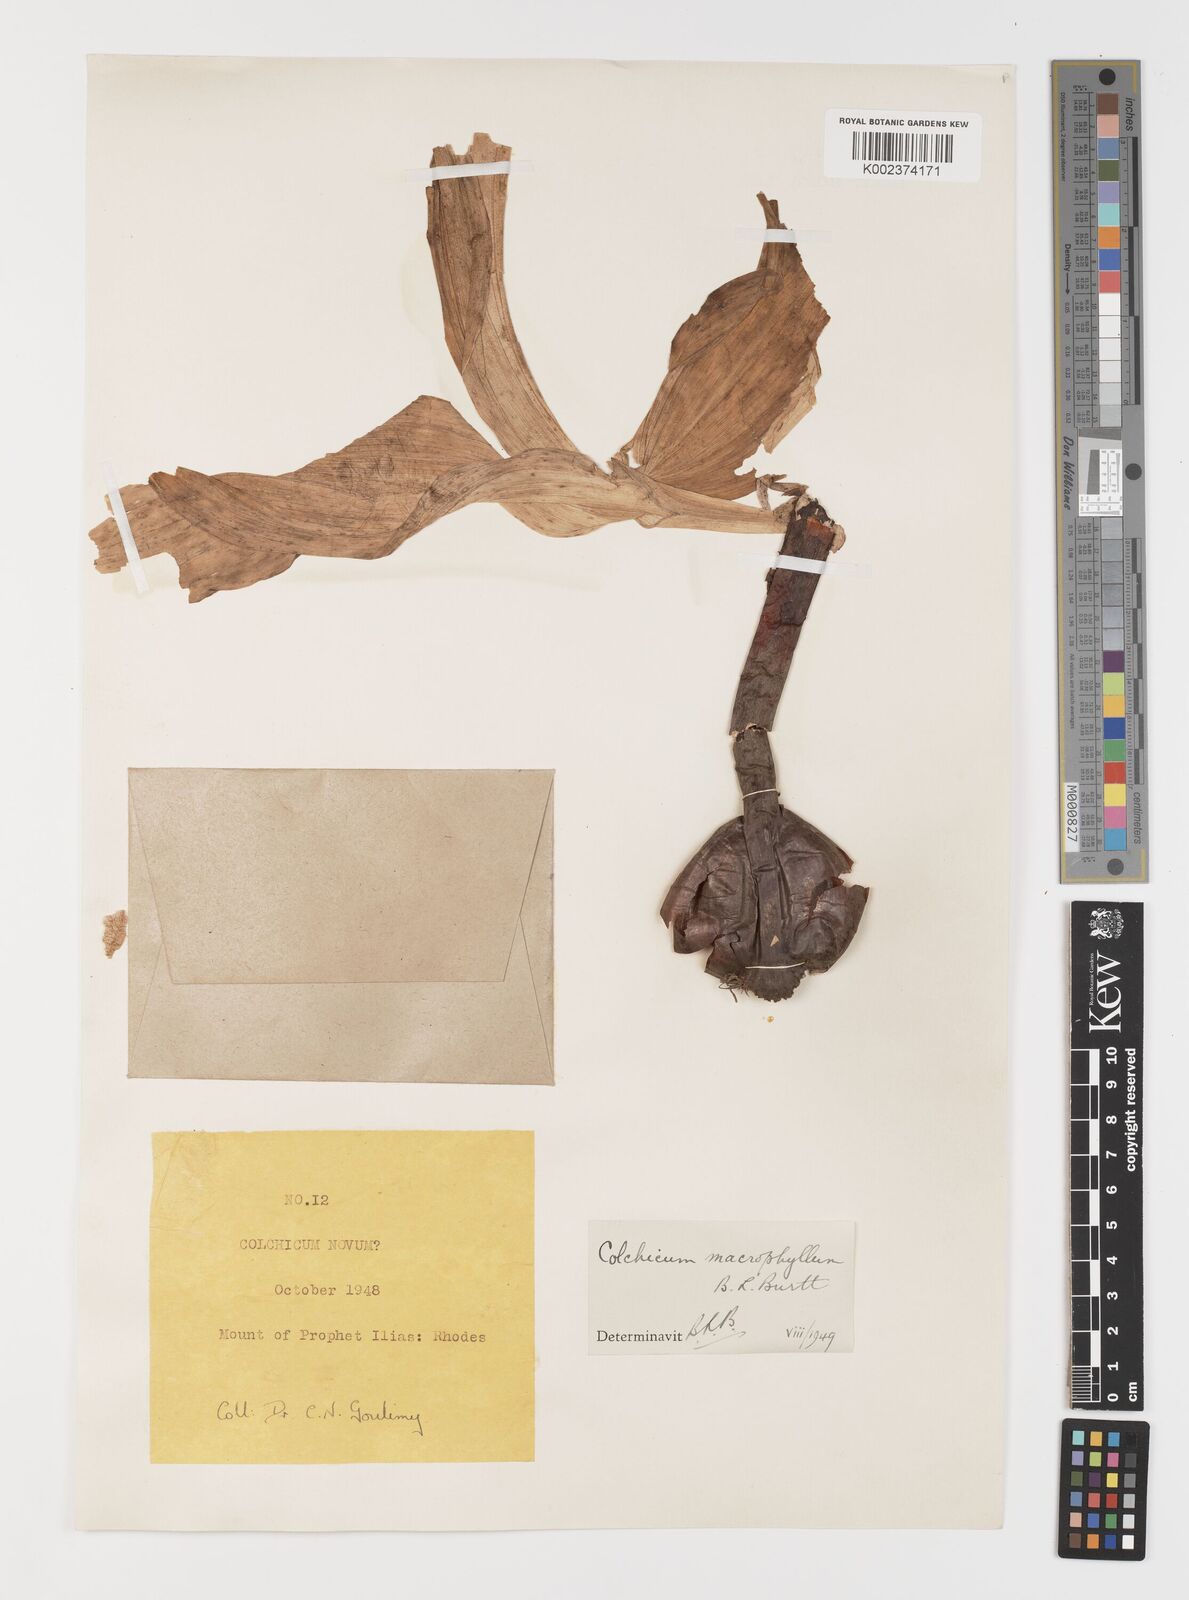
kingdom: Plantae
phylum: Tracheophyta
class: Liliopsida
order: Liliales
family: Colchicaceae
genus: Colchicum
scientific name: Colchicum macrophyllum
